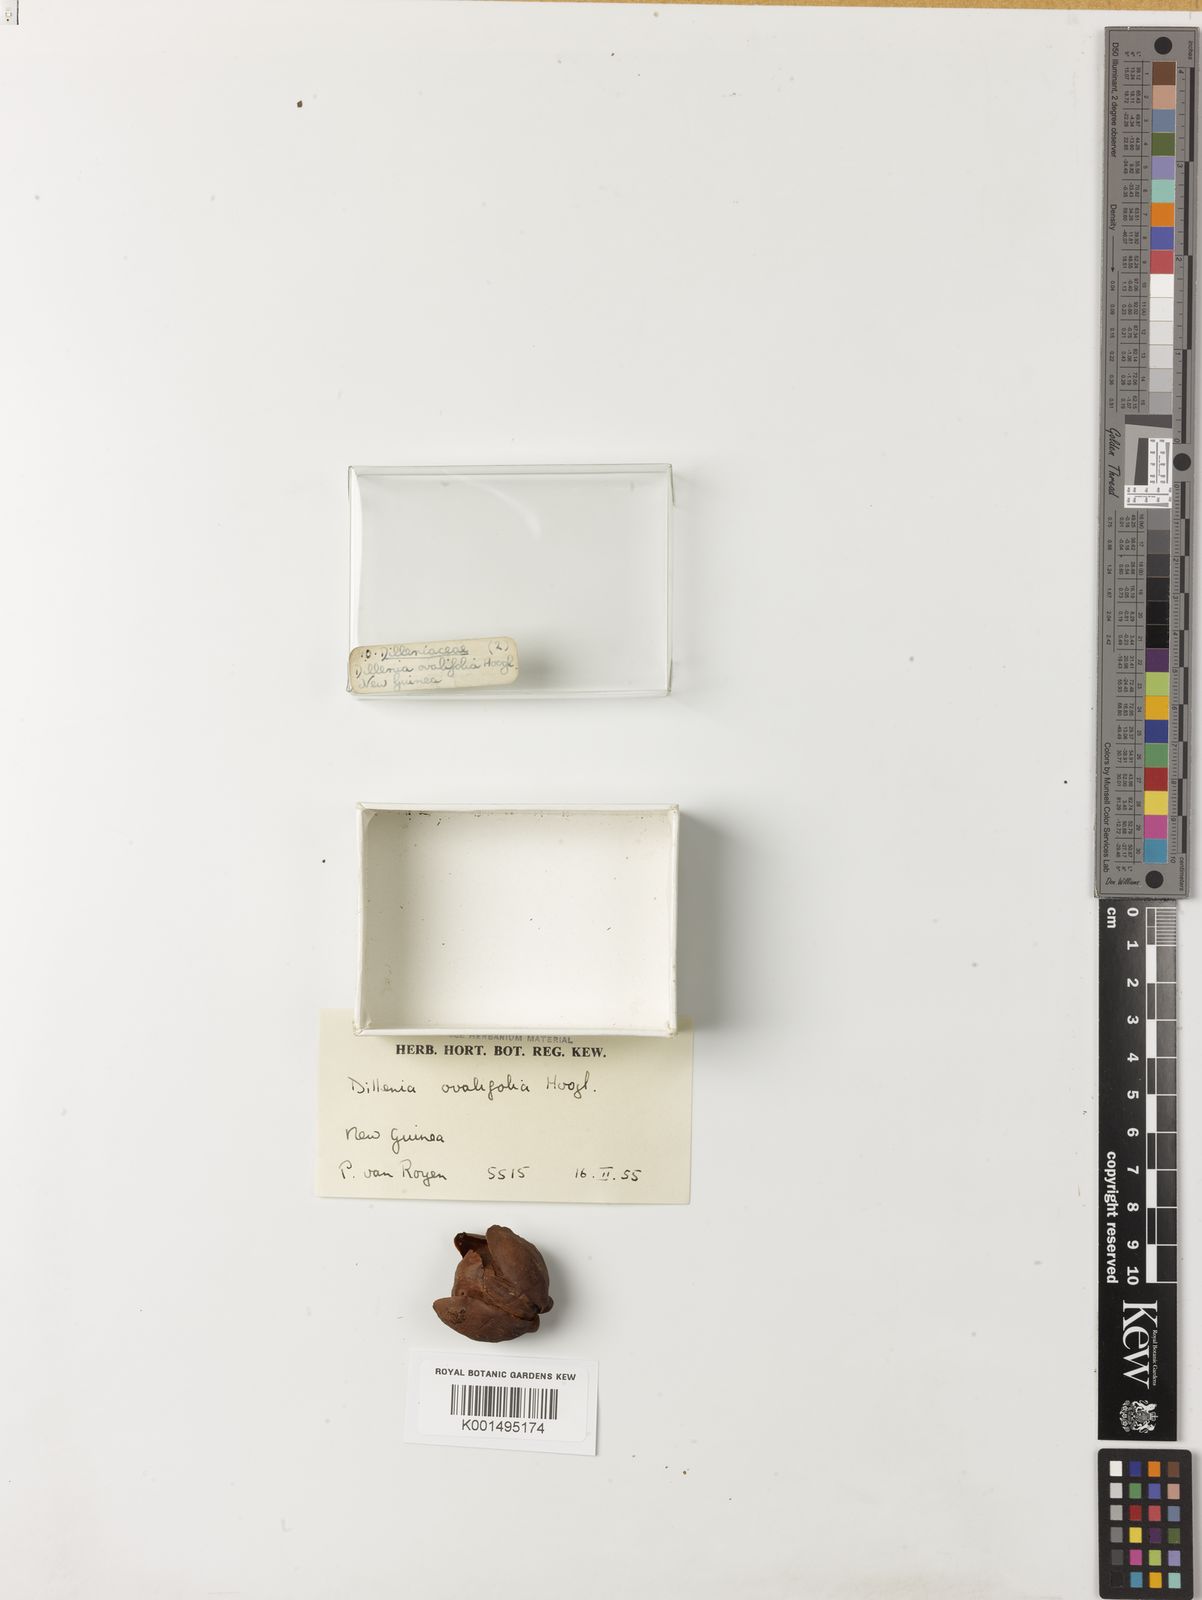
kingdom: Plantae
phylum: Tracheophyta
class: Magnoliopsida
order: Dilleniales
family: Dilleniaceae
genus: Dillenia
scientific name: Dillenia ovalifolia
